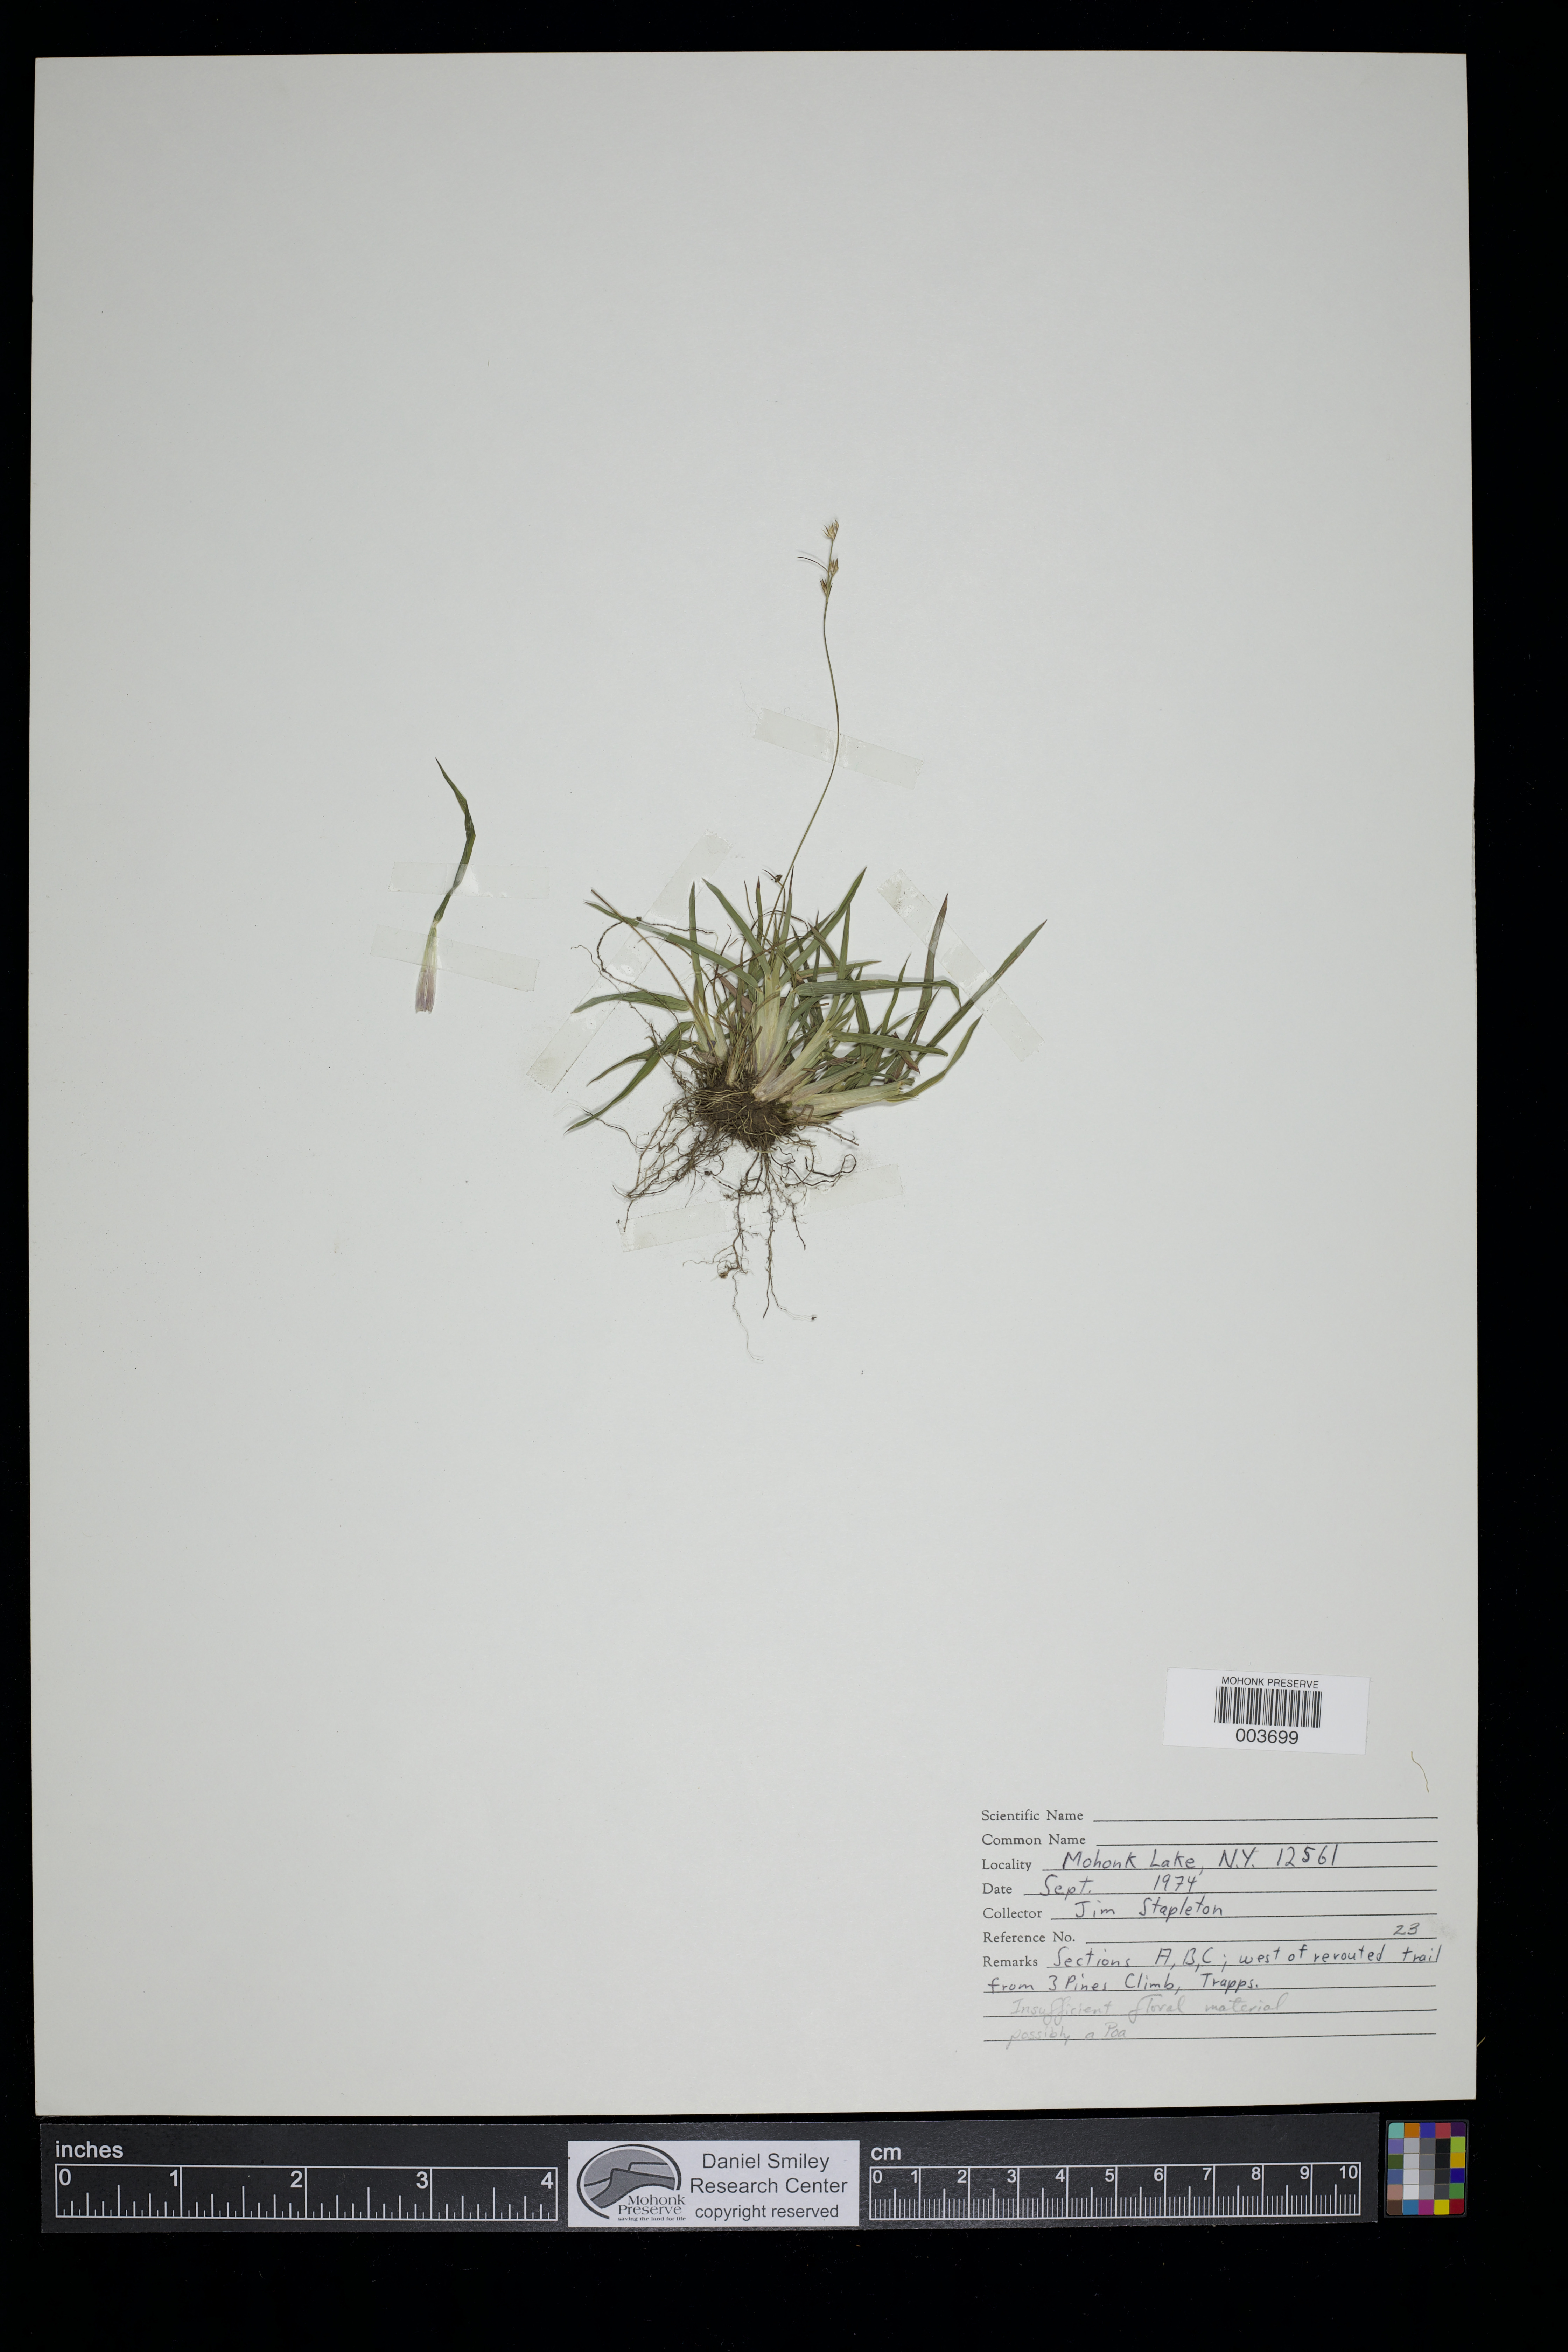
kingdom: Plantae
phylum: Tracheophyta
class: Liliopsida
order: Poales
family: Poaceae
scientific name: Poaceae
